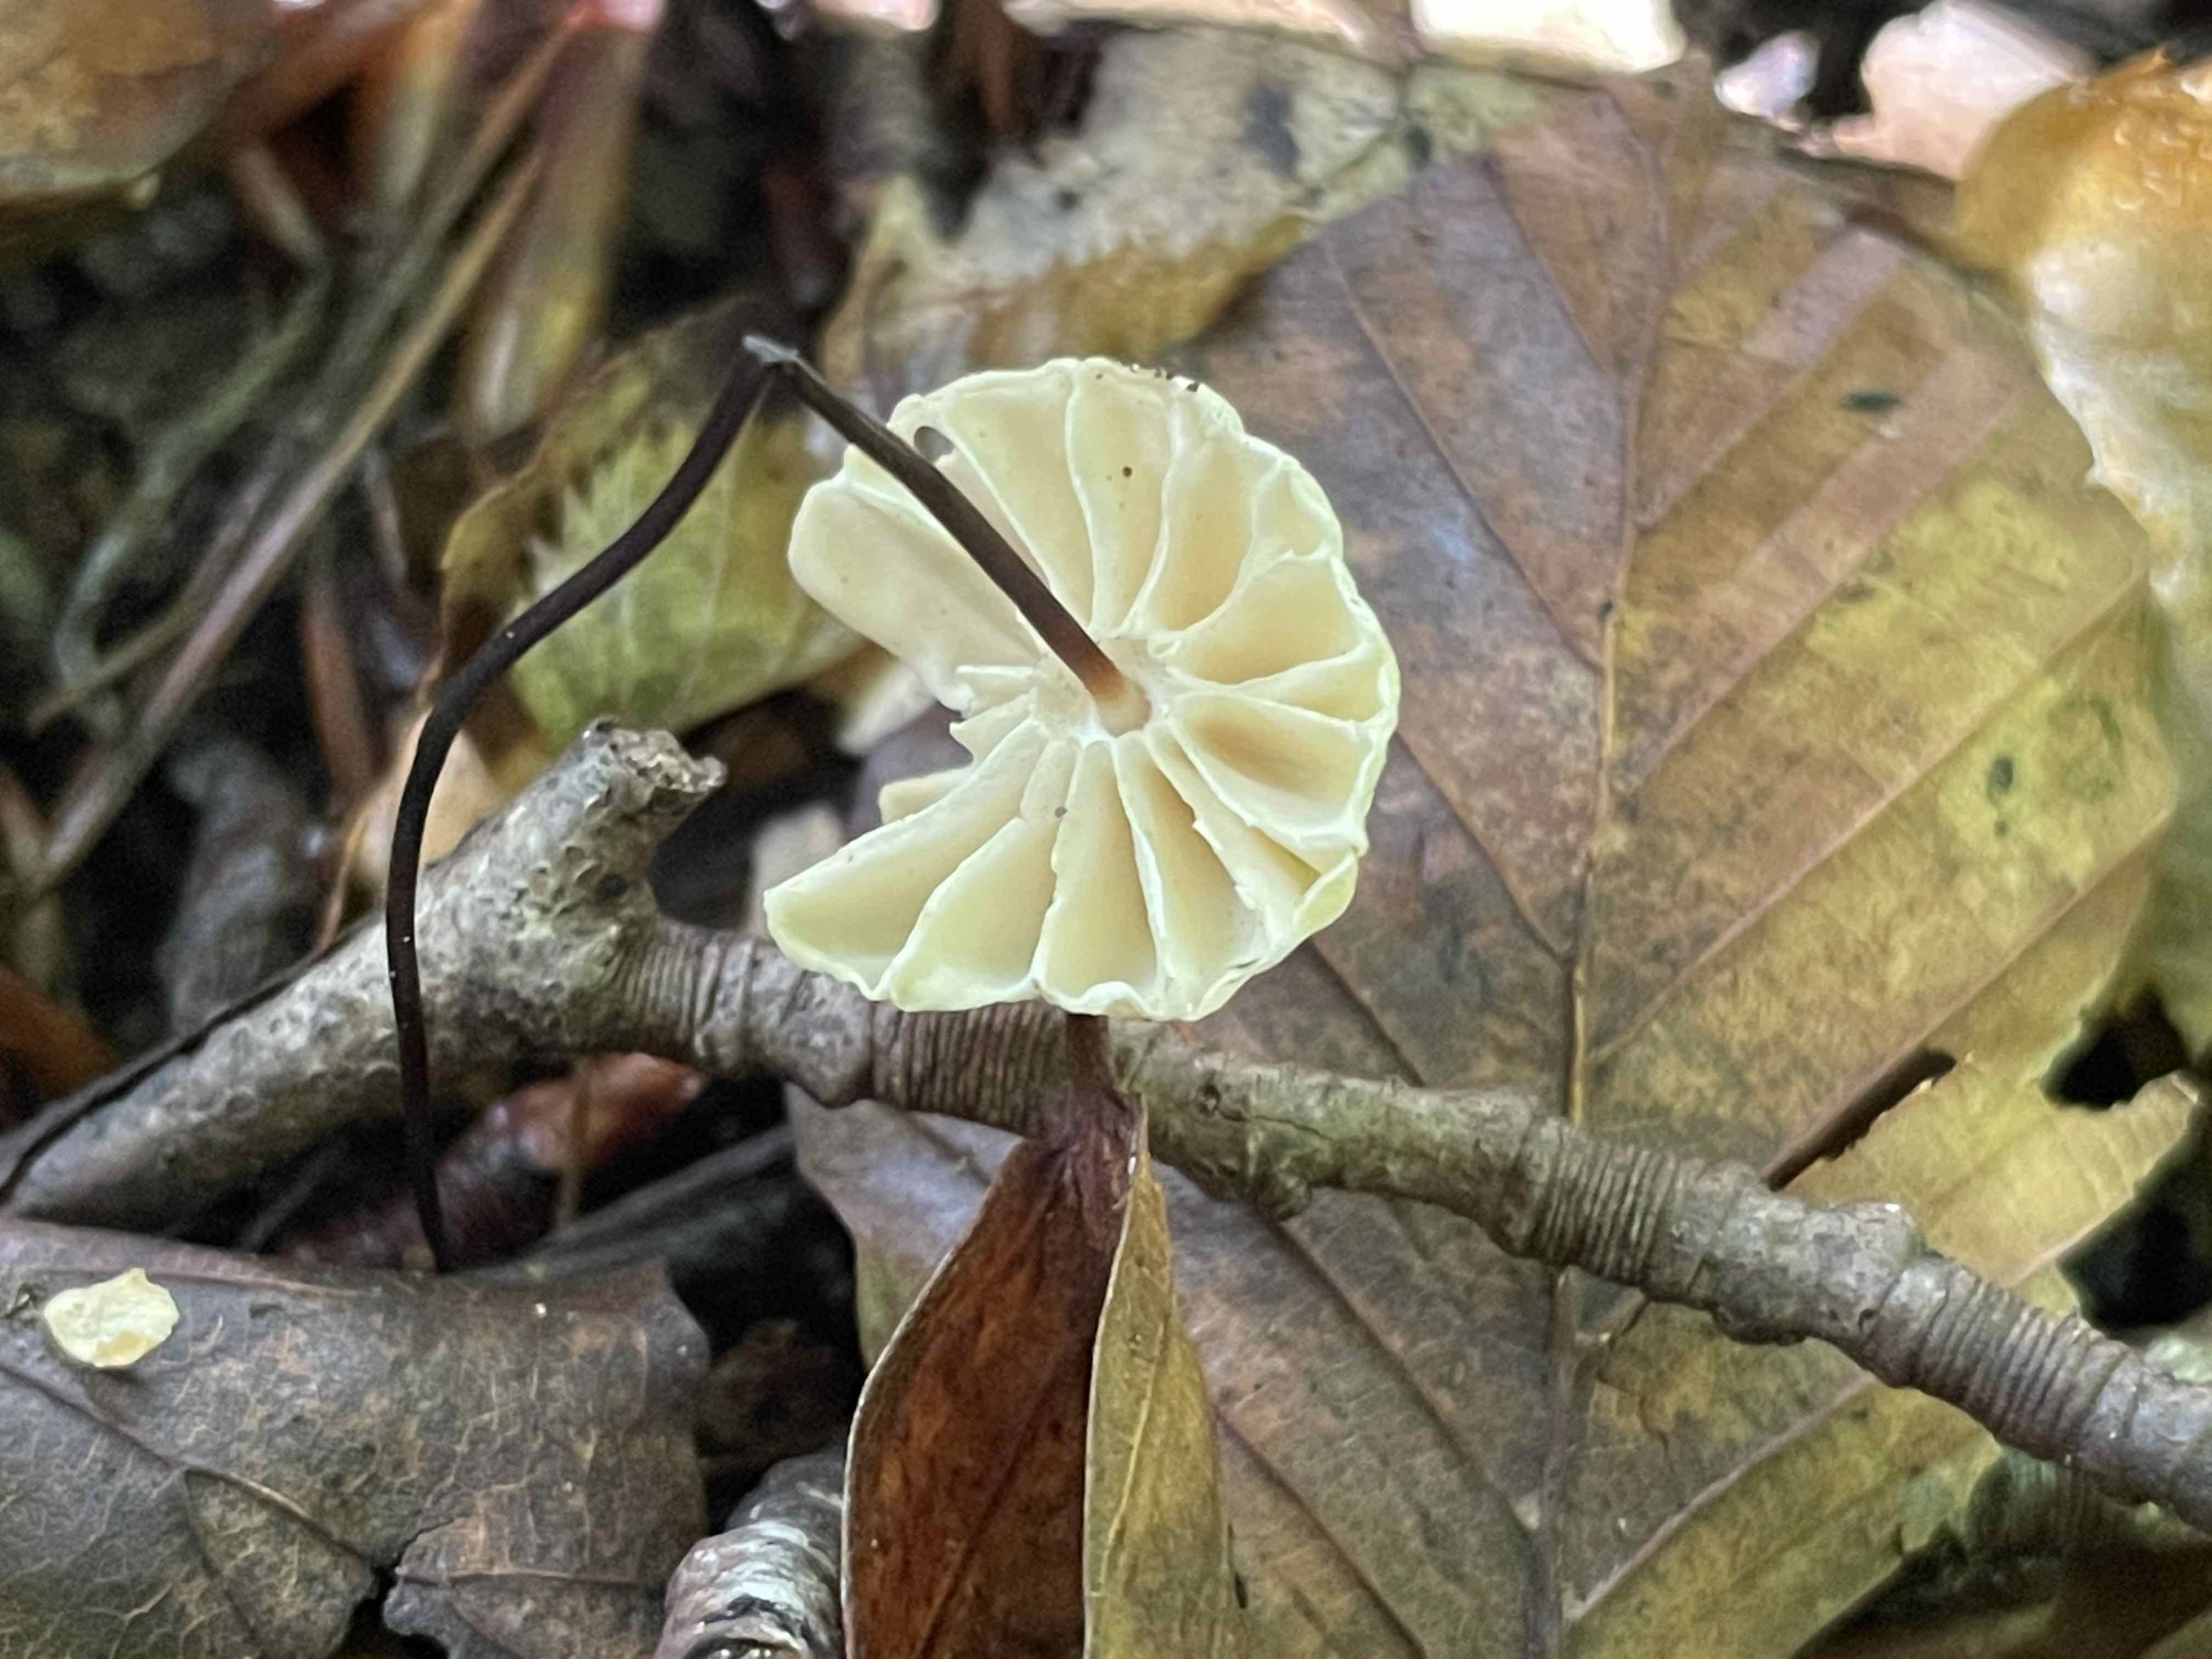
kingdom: Fungi
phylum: Basidiomycota
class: Agaricomycetes
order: Agaricales
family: Marasmiaceae
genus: Marasmius
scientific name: Marasmius rotula
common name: hjul-bruskhat
